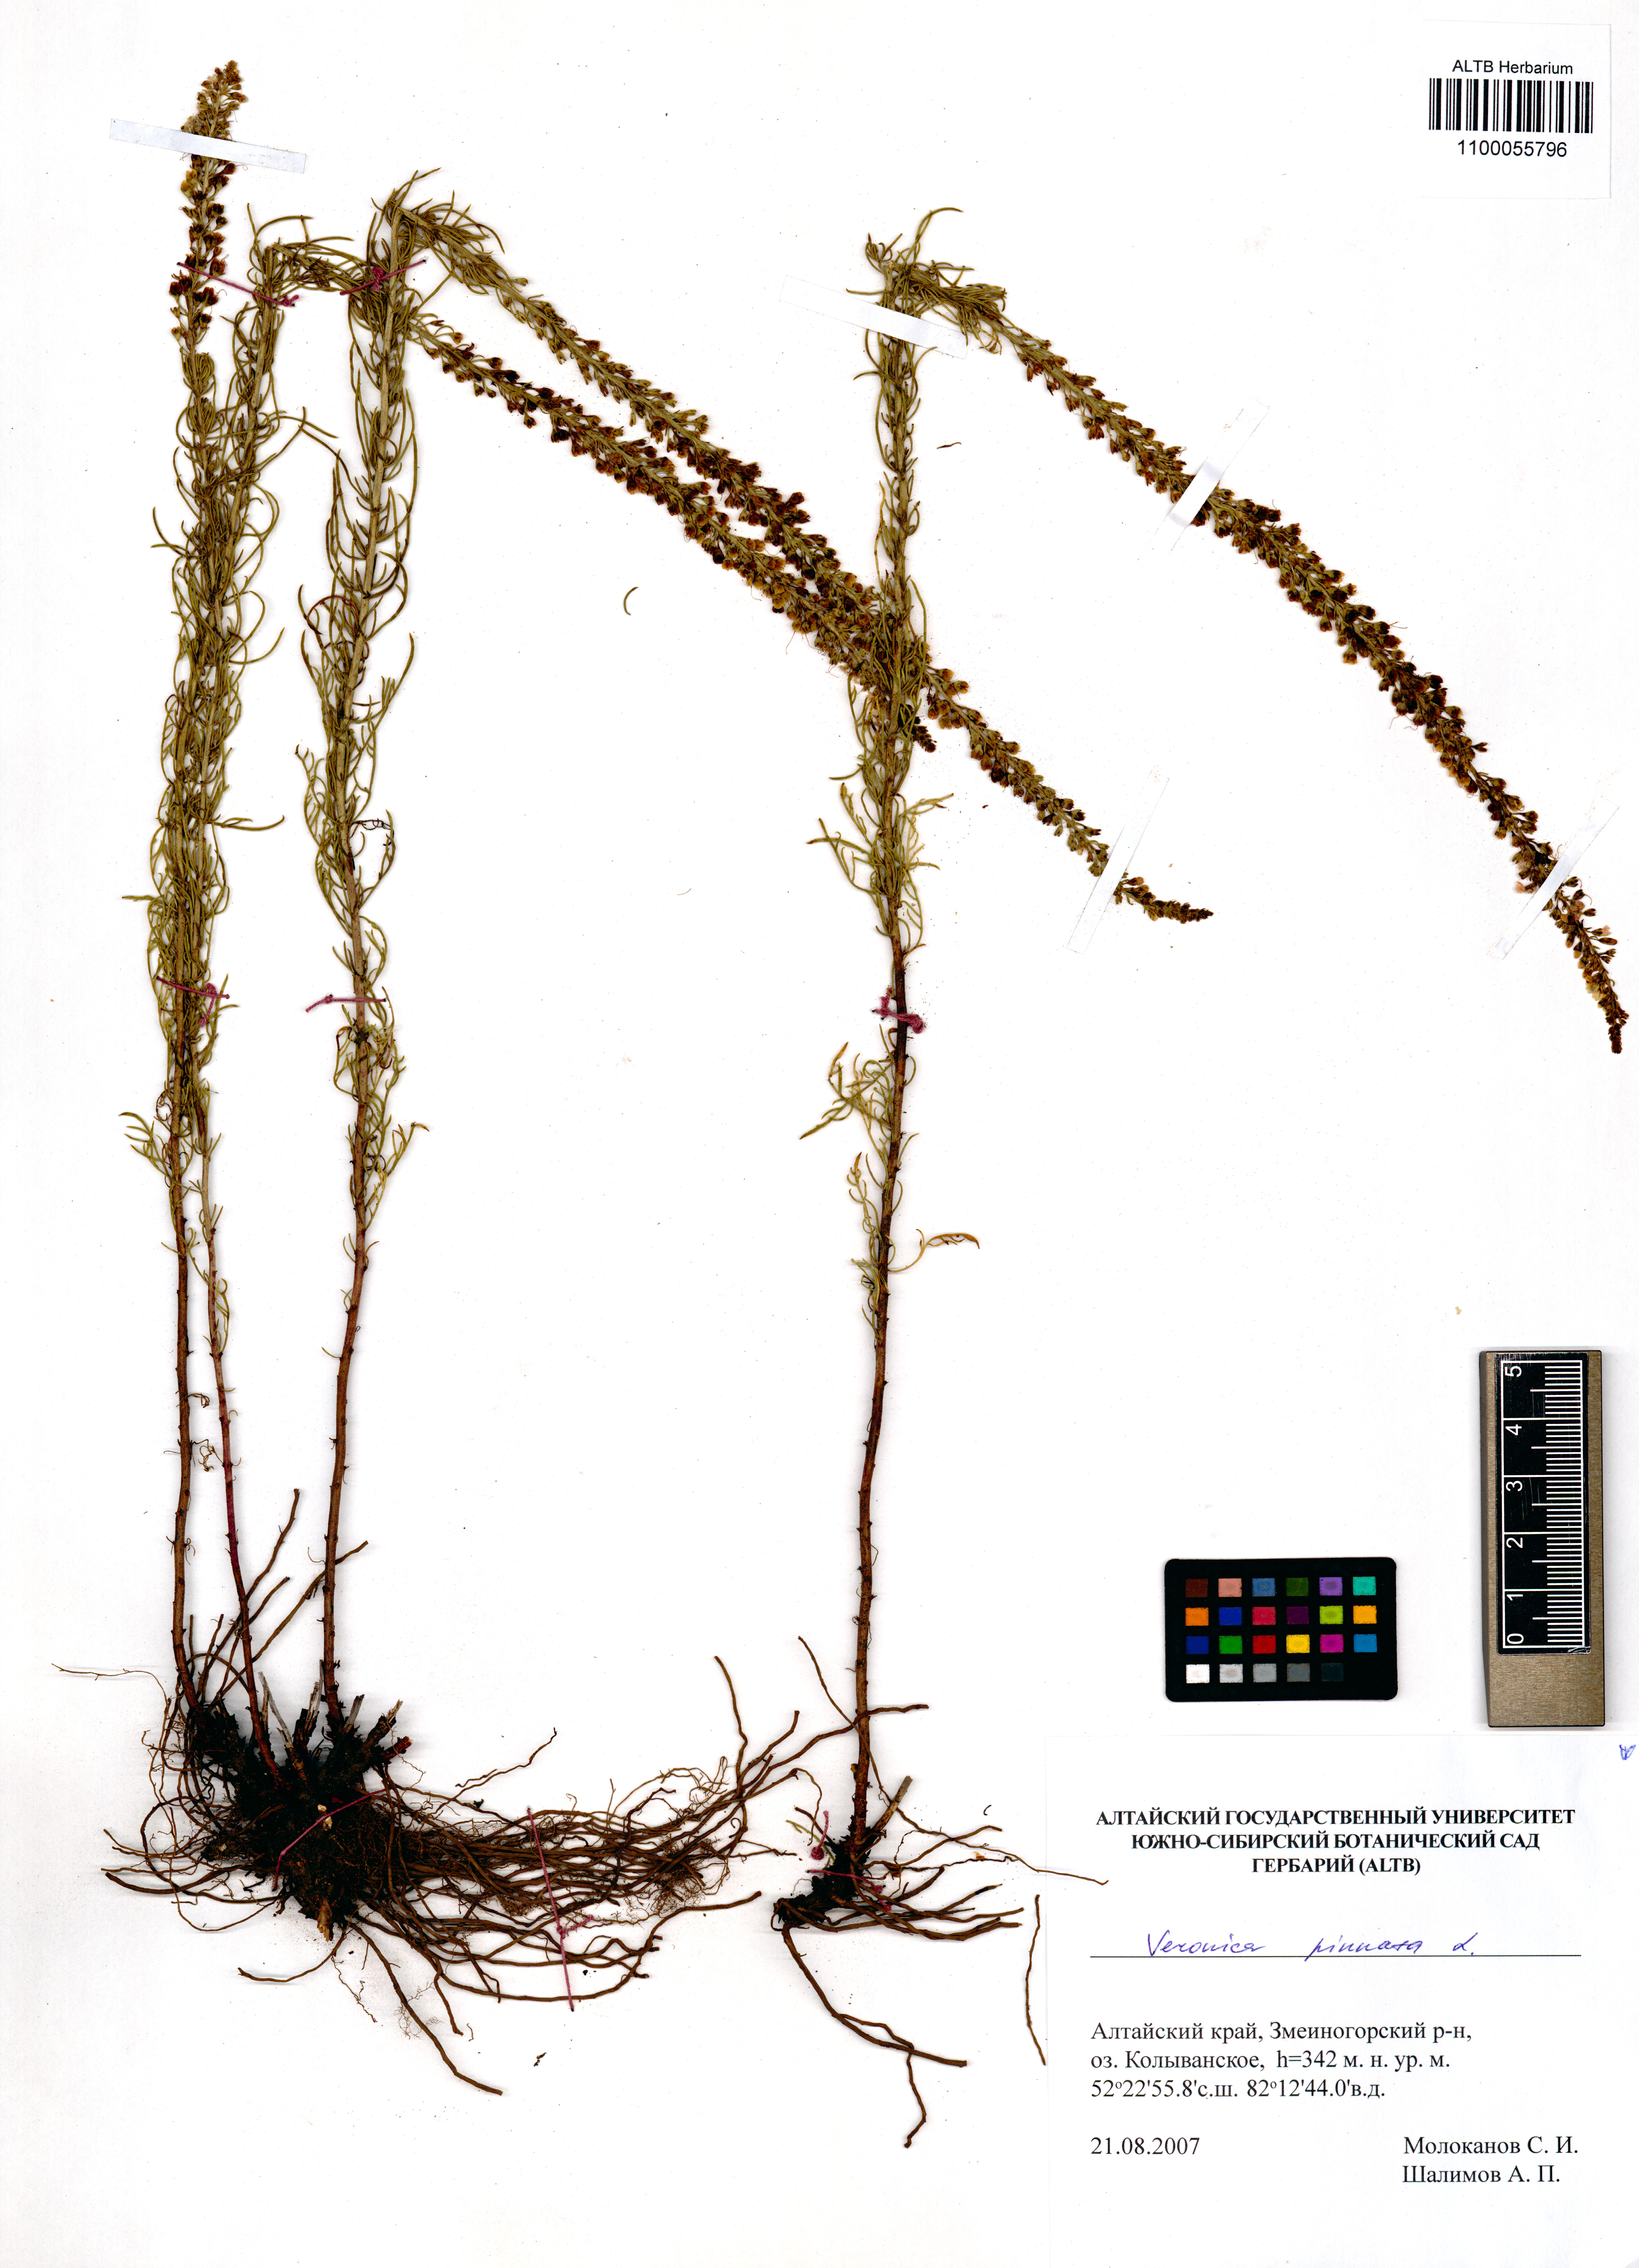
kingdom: Plantae
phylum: Tracheophyta
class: Magnoliopsida
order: Lamiales
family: Plantaginaceae
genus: Veronica
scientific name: Veronica pinnata
